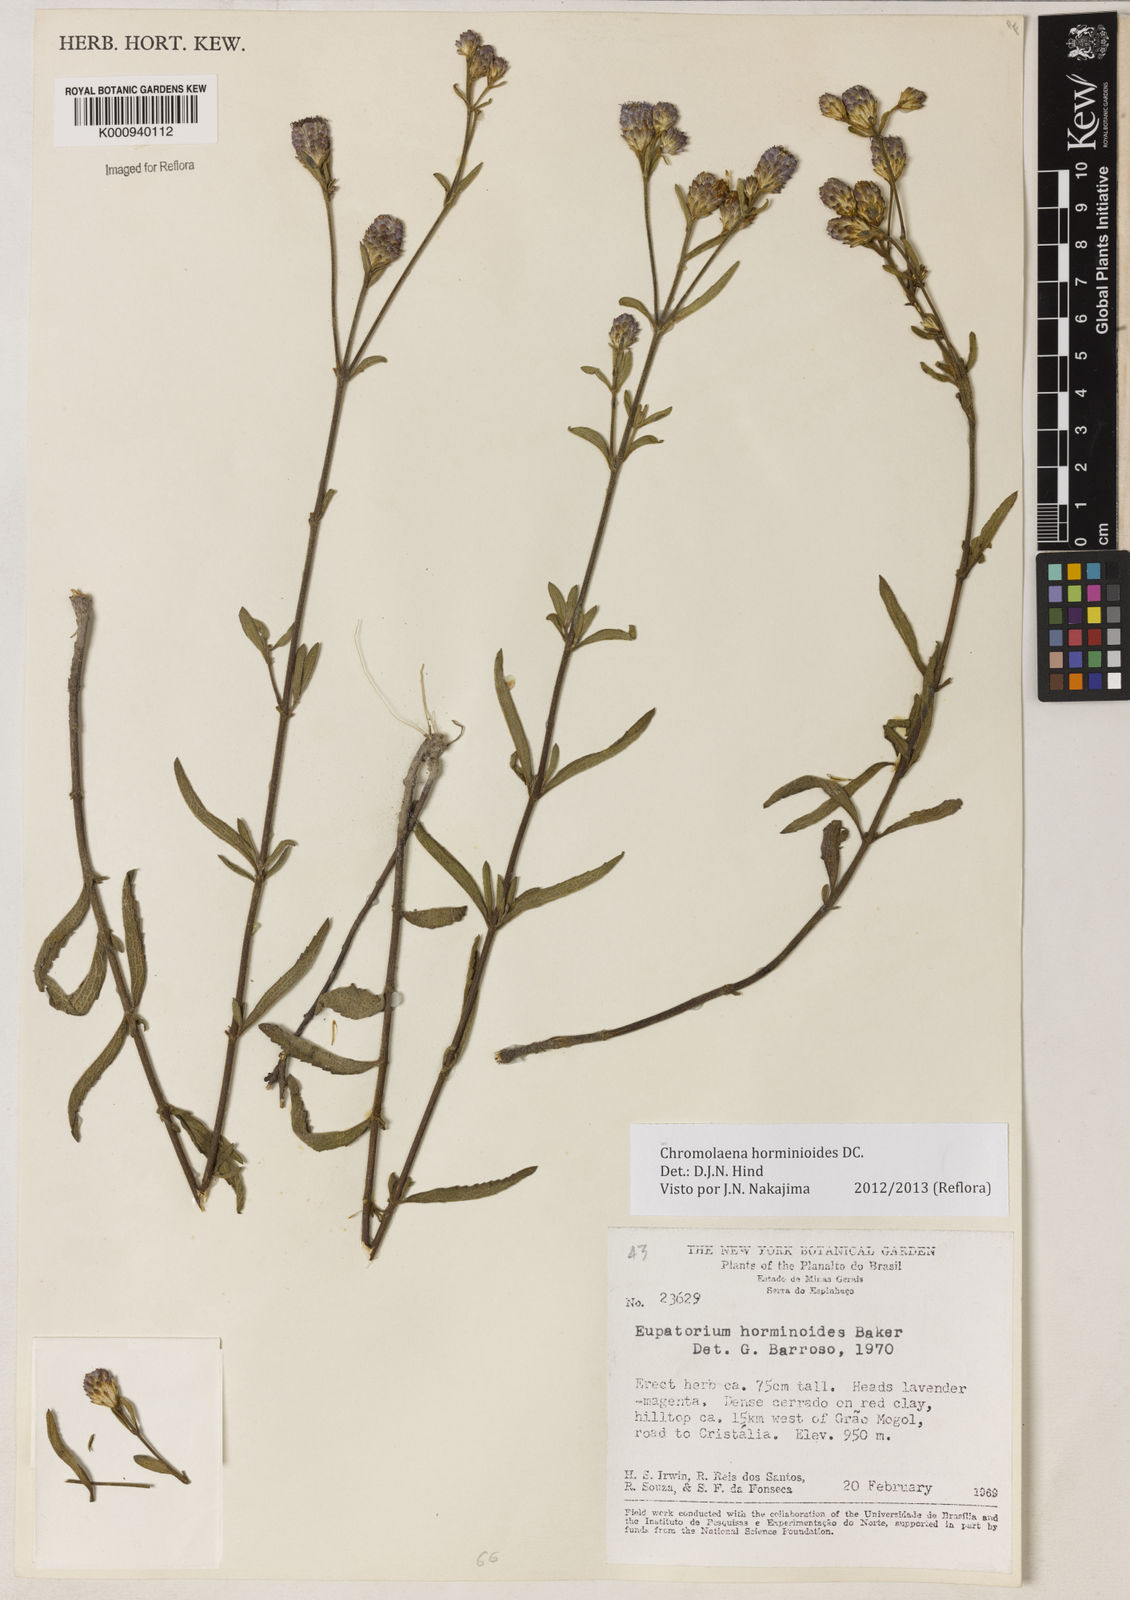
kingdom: Plantae
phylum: Tracheophyta
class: Magnoliopsida
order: Asterales
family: Asteraceae
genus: Chromolaena
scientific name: Chromolaena horminoides
